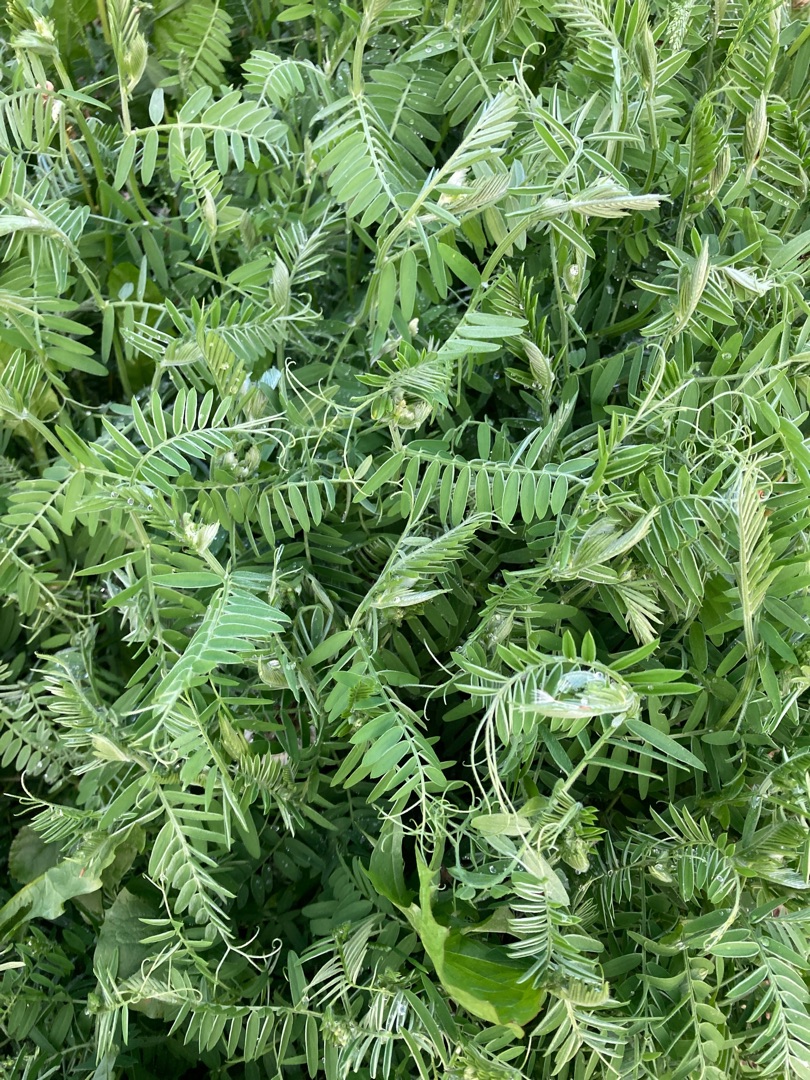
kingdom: Plantae
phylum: Tracheophyta
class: Magnoliopsida
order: Fabales
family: Fabaceae
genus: Vicia
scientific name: Vicia cracca
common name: Muse-vikke
